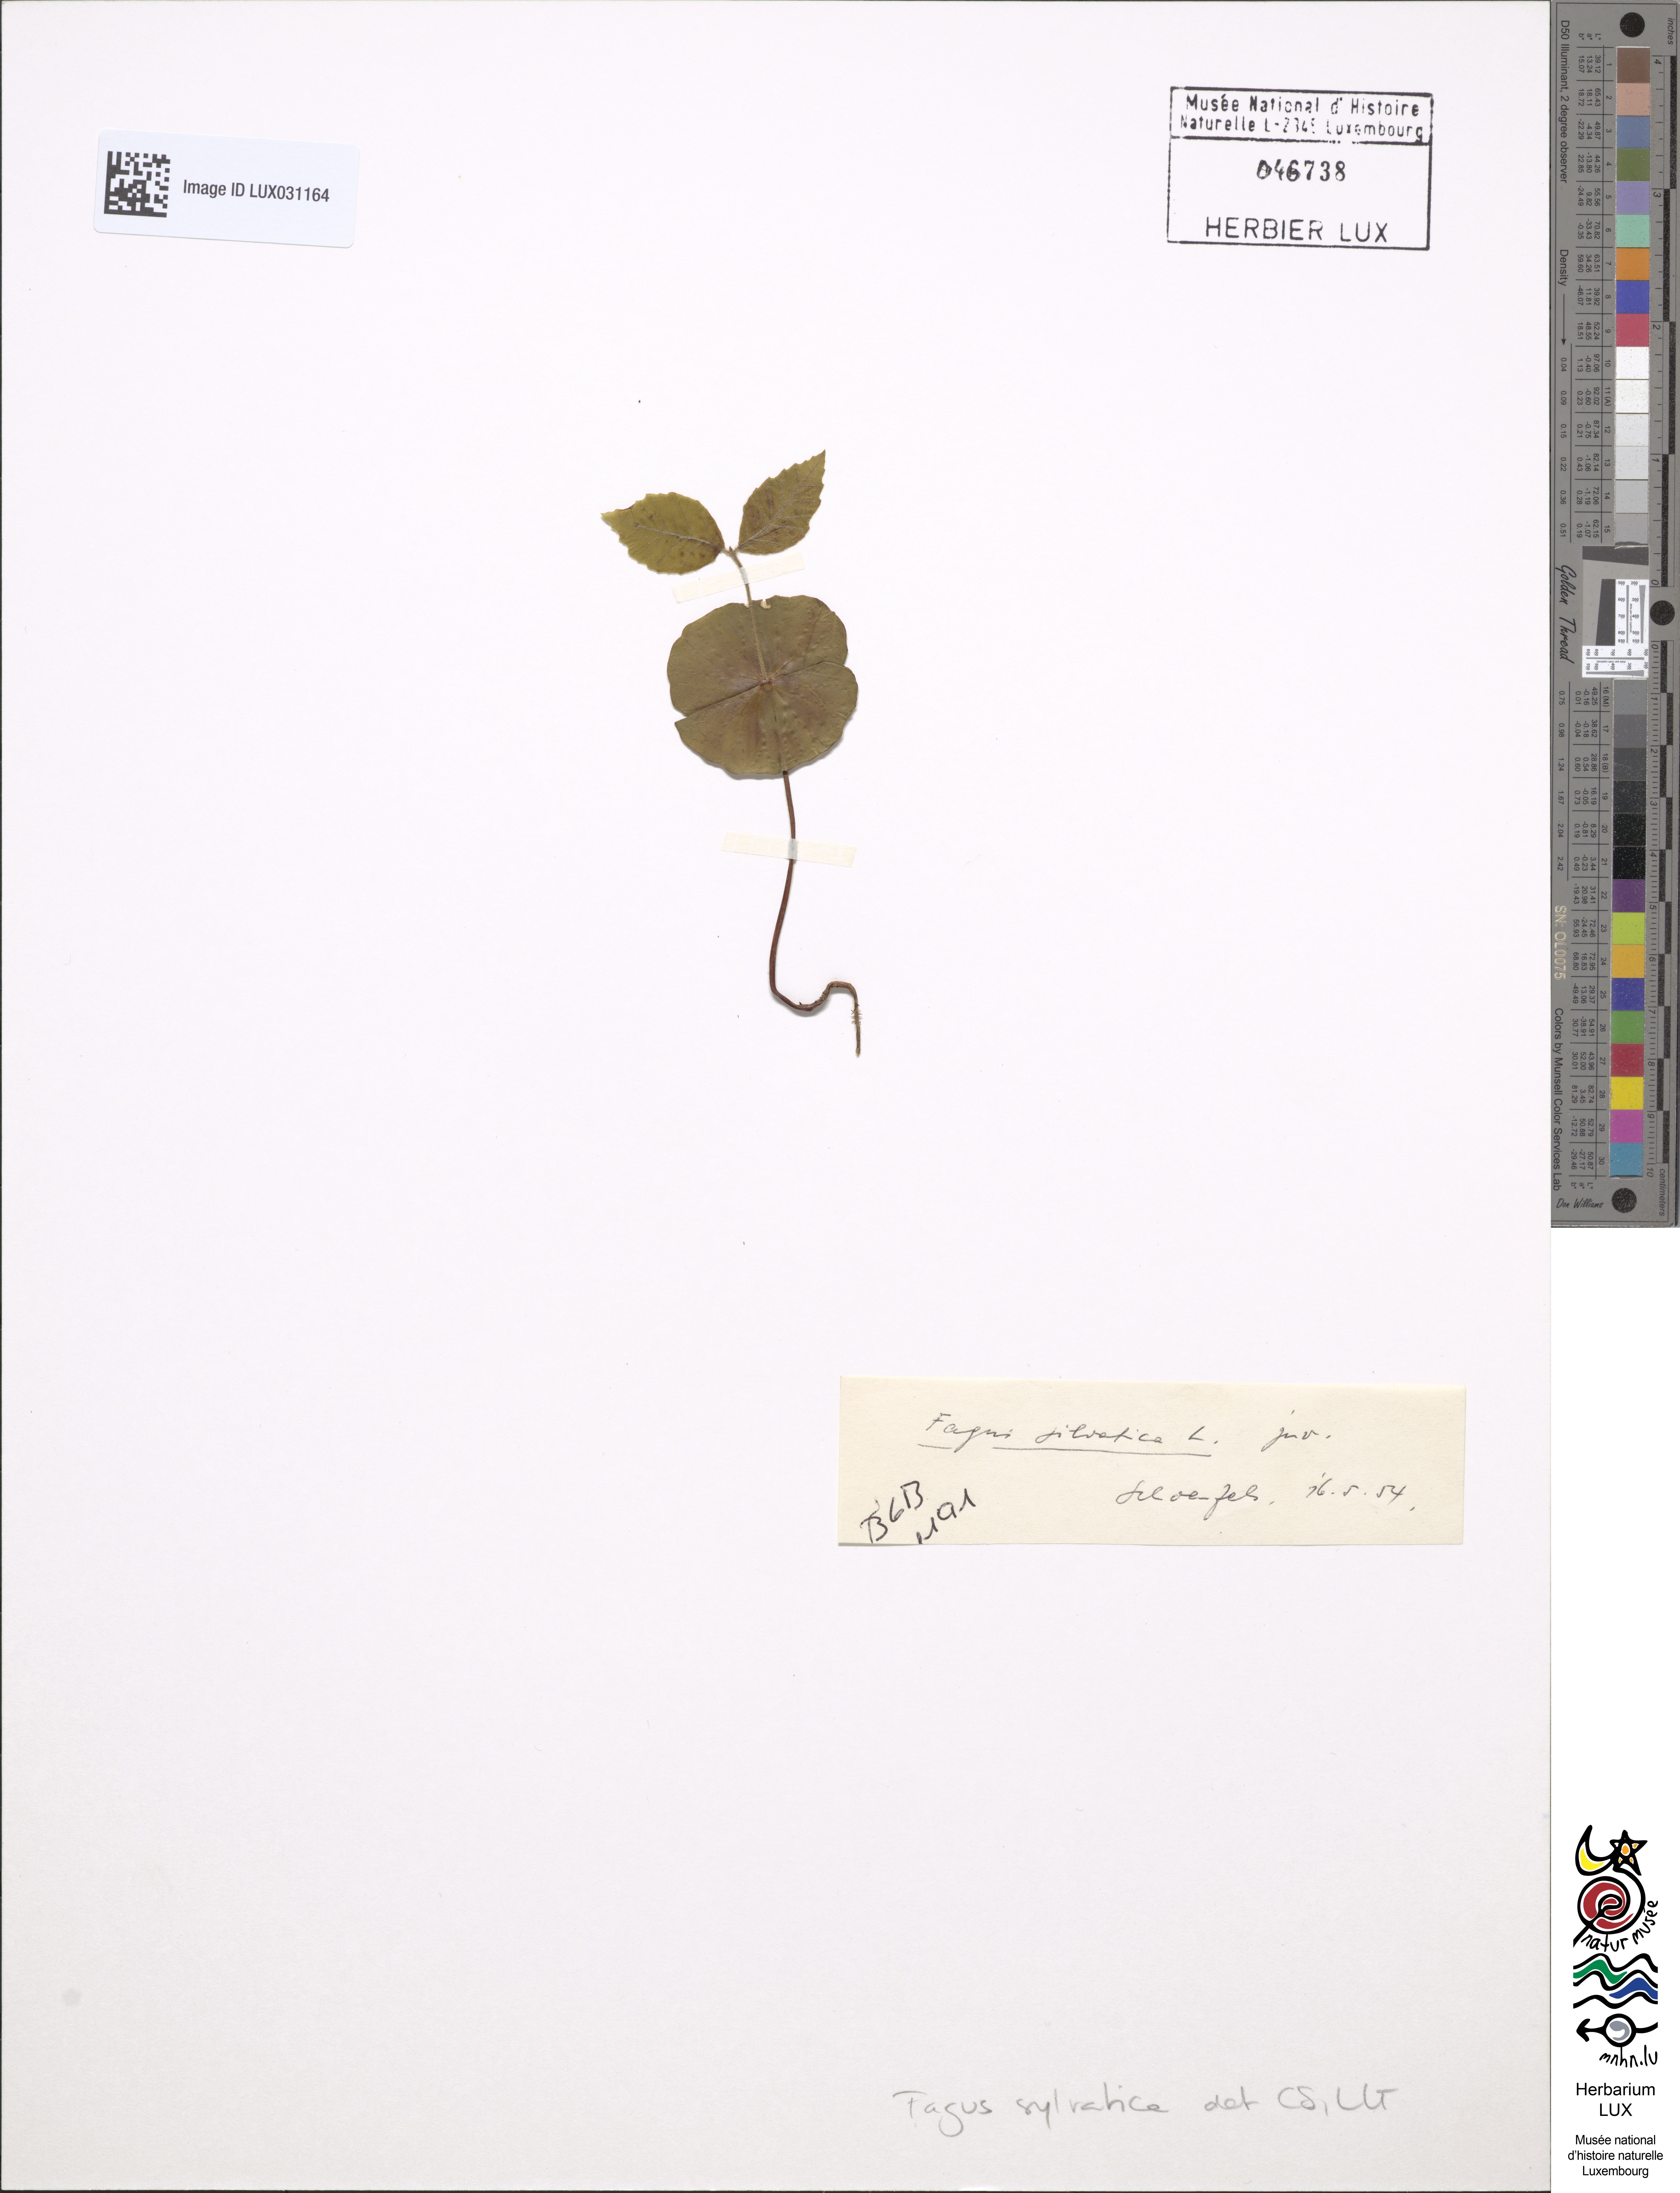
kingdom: Plantae
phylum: Tracheophyta
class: Magnoliopsida
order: Fagales
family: Fagaceae
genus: Fagus
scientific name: Fagus sylvatica
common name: Beech
